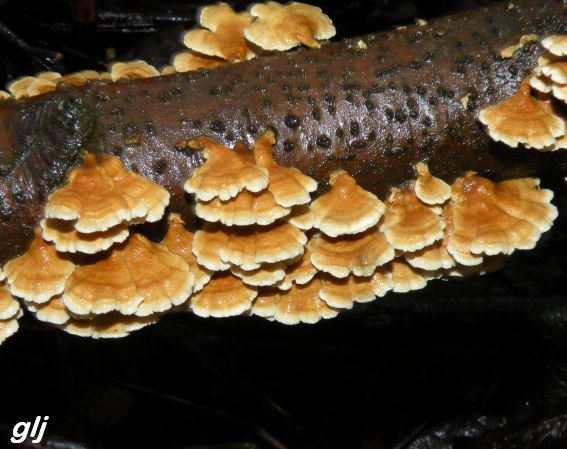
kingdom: Fungi
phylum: Basidiomycota
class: Agaricomycetes
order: Amylocorticiales
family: Amylocorticiaceae
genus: Plicaturopsis
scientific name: Plicaturopsis crispa
